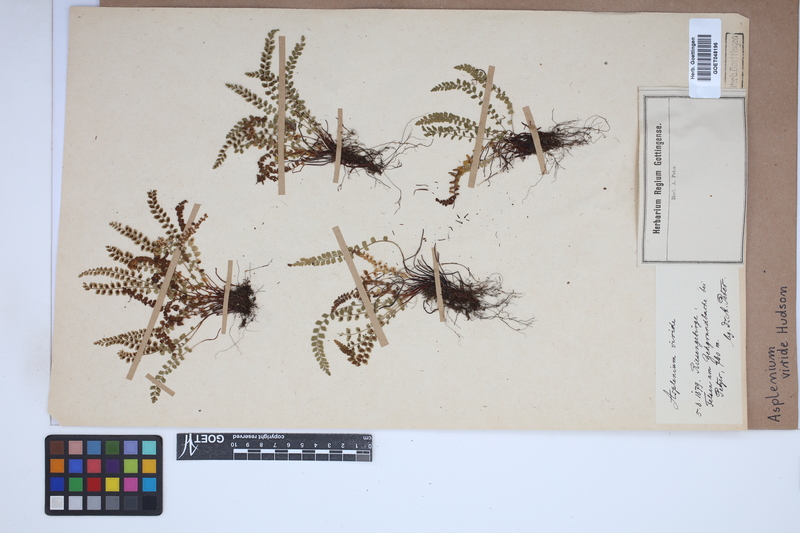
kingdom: Plantae
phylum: Tracheophyta
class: Polypodiopsida
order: Polypodiales
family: Aspleniaceae
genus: Asplenium
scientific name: Asplenium viride
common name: Green spleenwort
